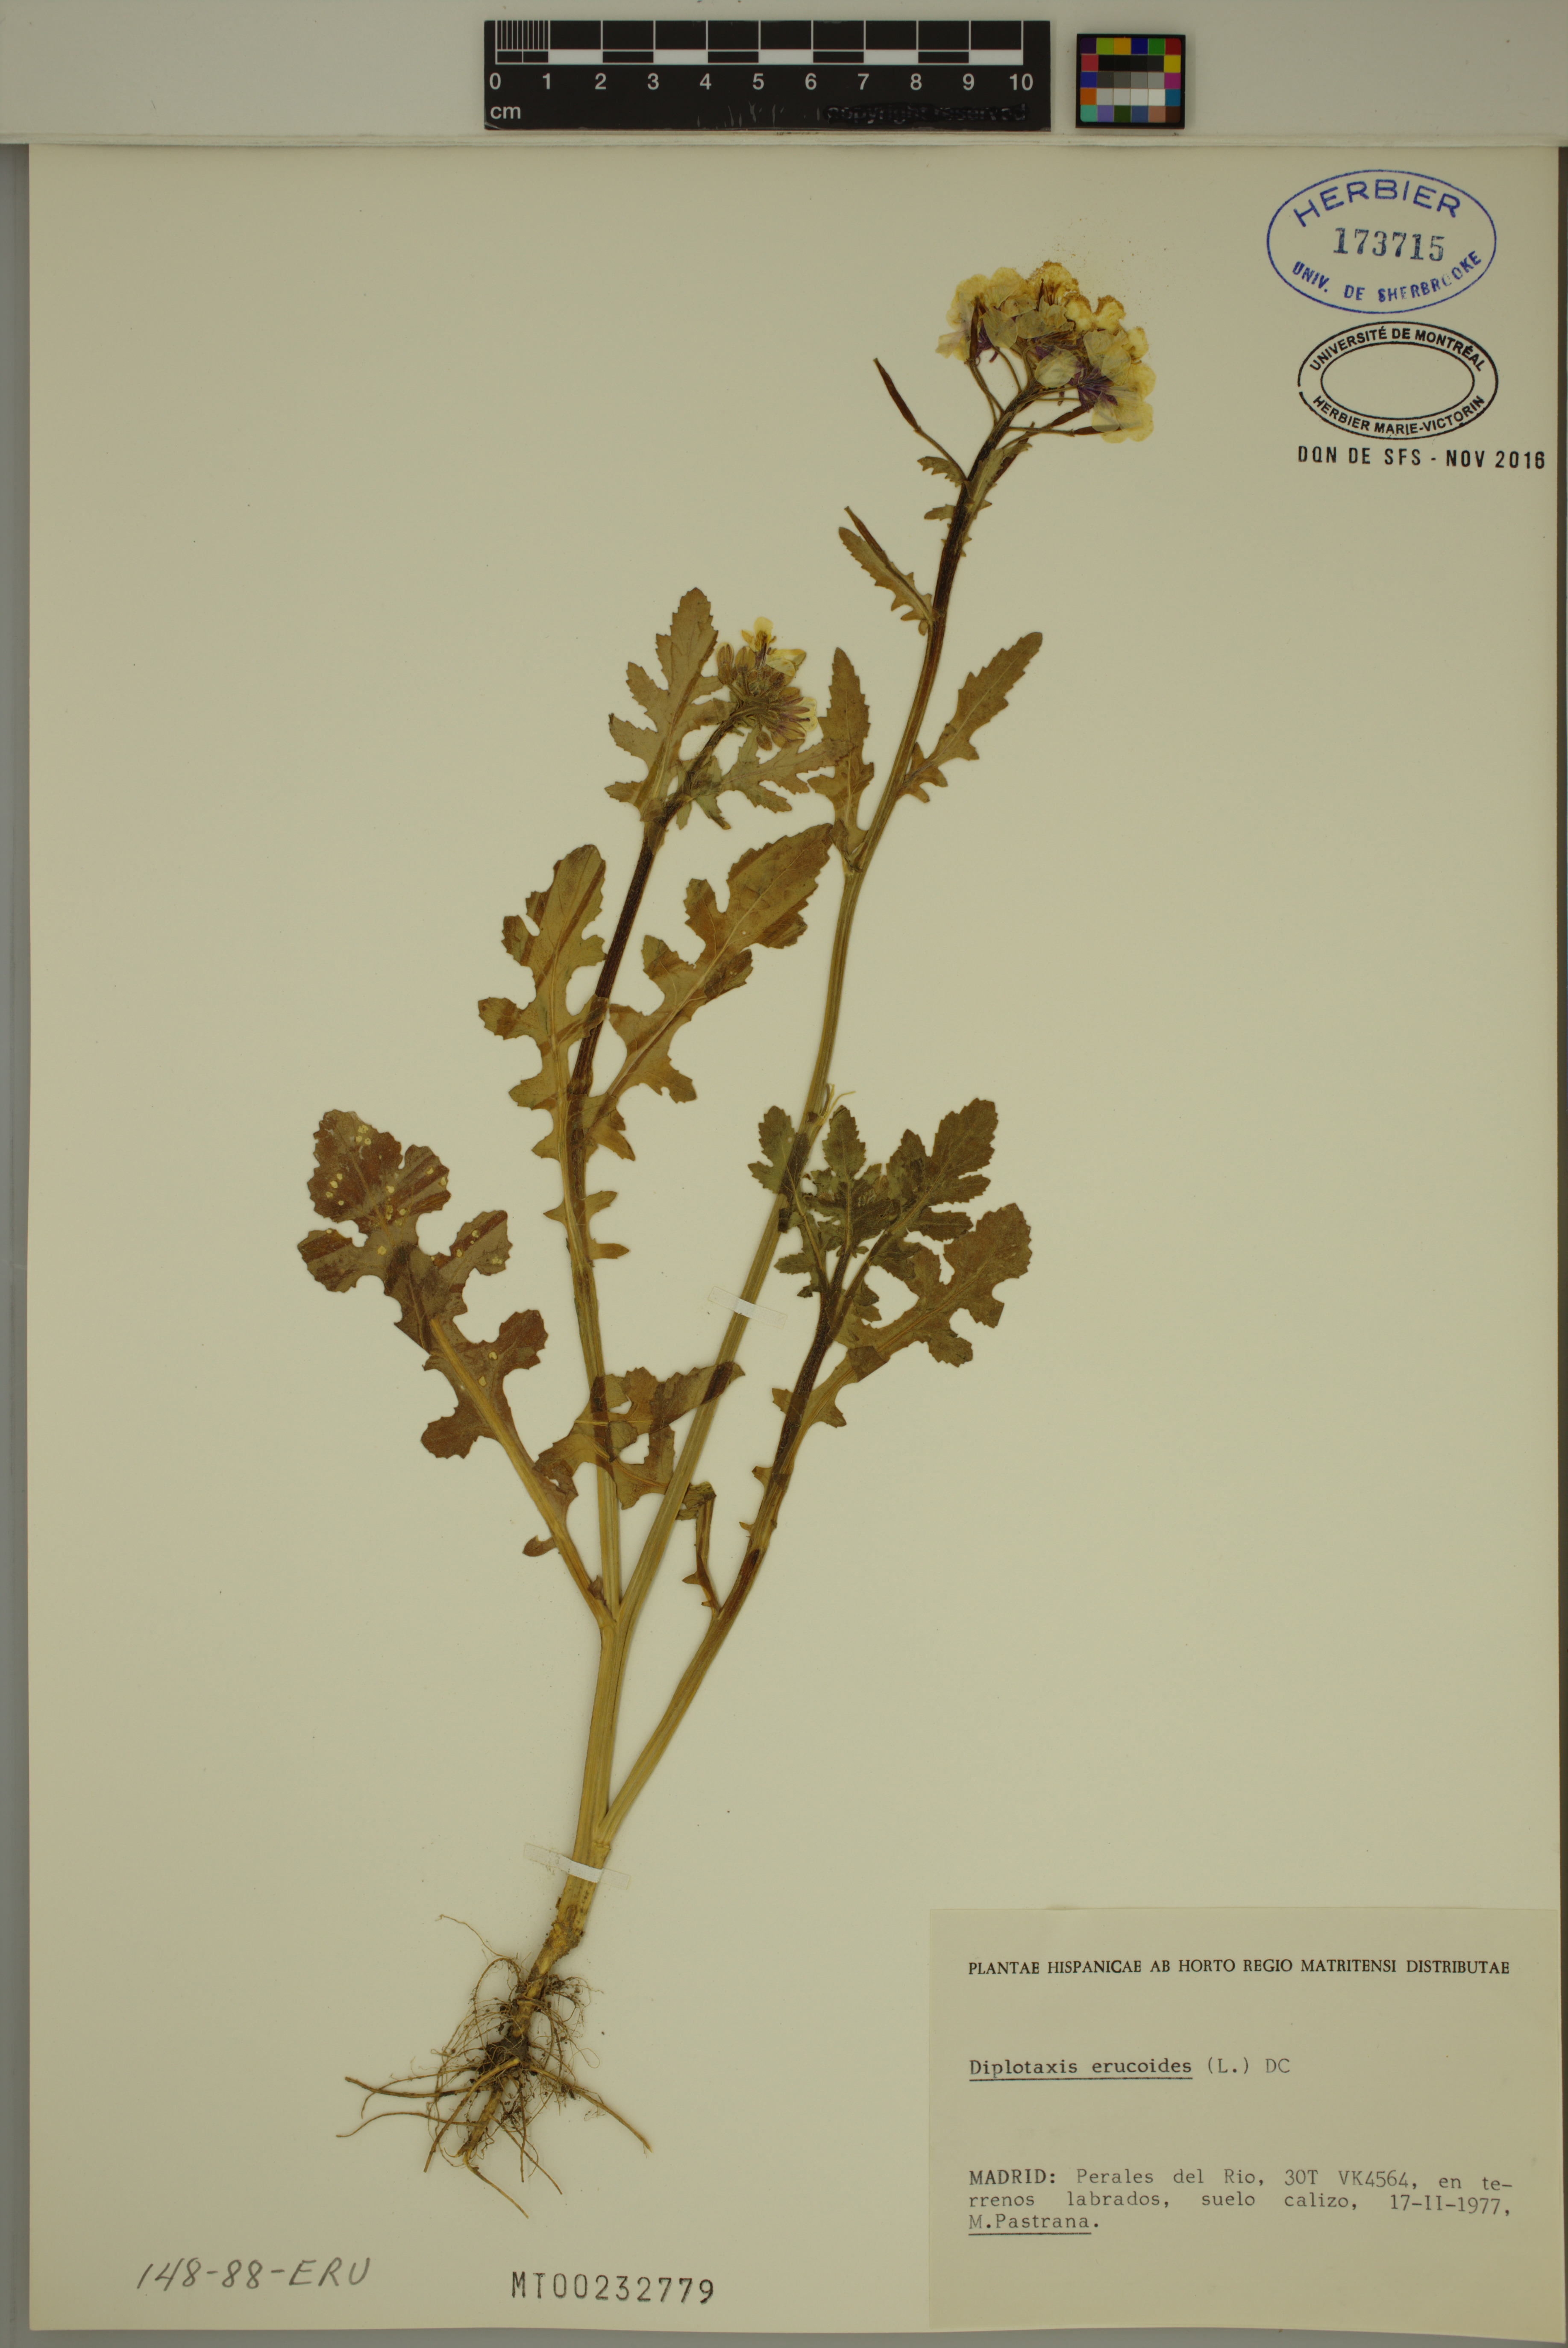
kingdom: Plantae
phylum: Tracheophyta
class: Magnoliopsida
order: Brassicales
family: Brassicaceae
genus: Diplotaxis
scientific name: Diplotaxis erucoides
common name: White rocket
